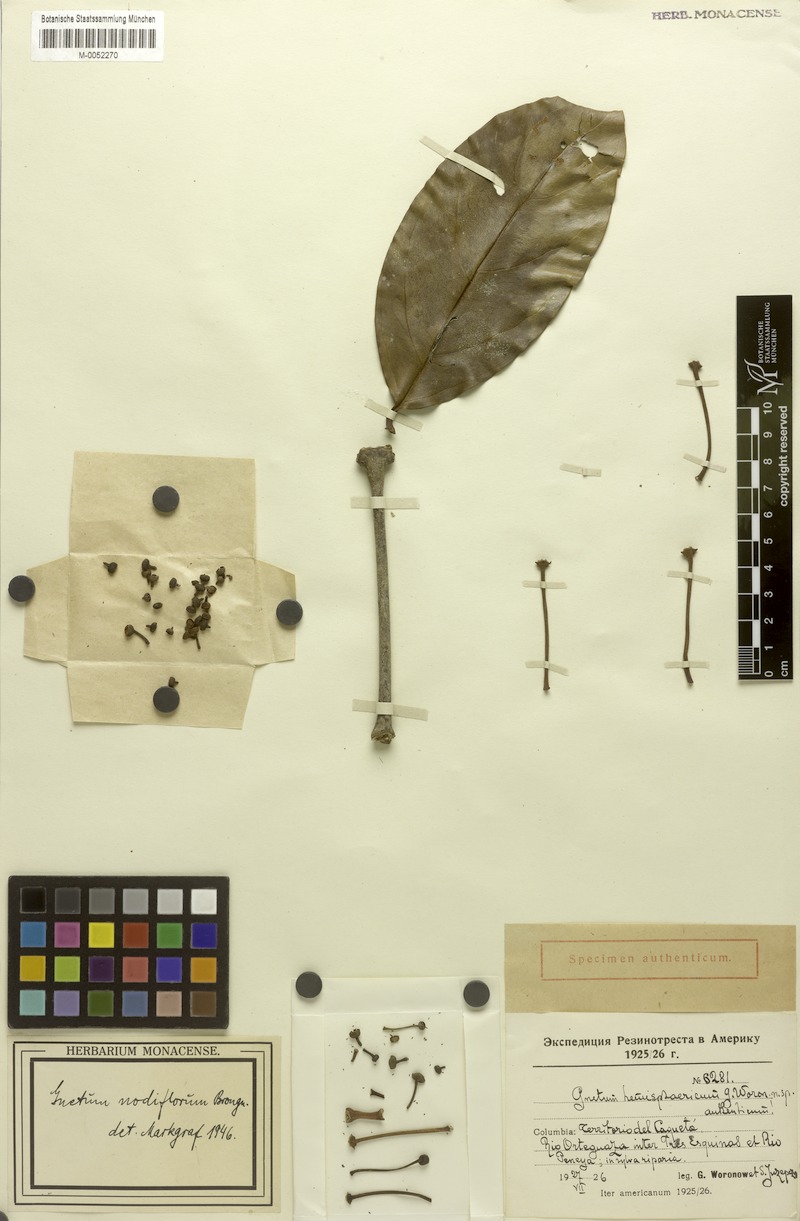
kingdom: Plantae
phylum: Tracheophyta
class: Gnetopsida
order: Gnetales
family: Gnetaceae
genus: Gnetum
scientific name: Gnetum nodiflorum
